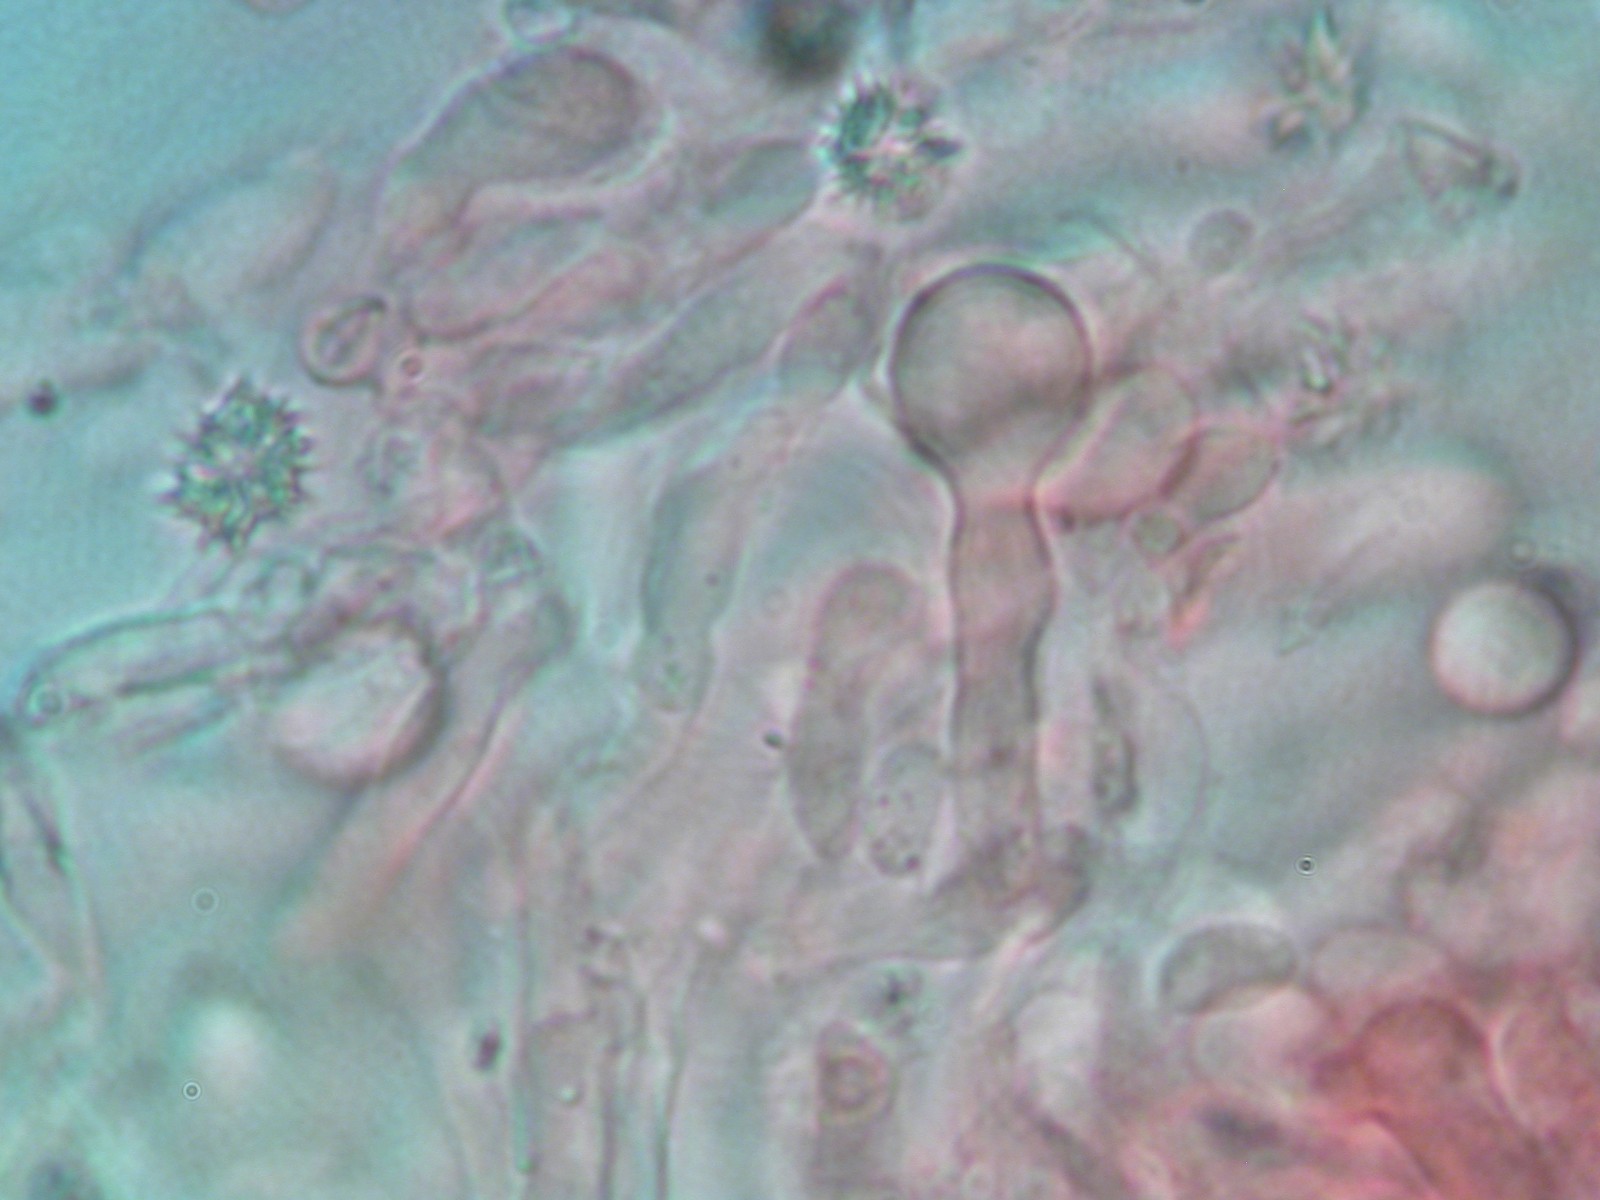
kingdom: Fungi
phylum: Basidiomycota
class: Agaricomycetes
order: Hymenochaetales
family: Rickenellaceae
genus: Resinicium
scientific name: Resinicium bicolor
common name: almindelig vokstand
